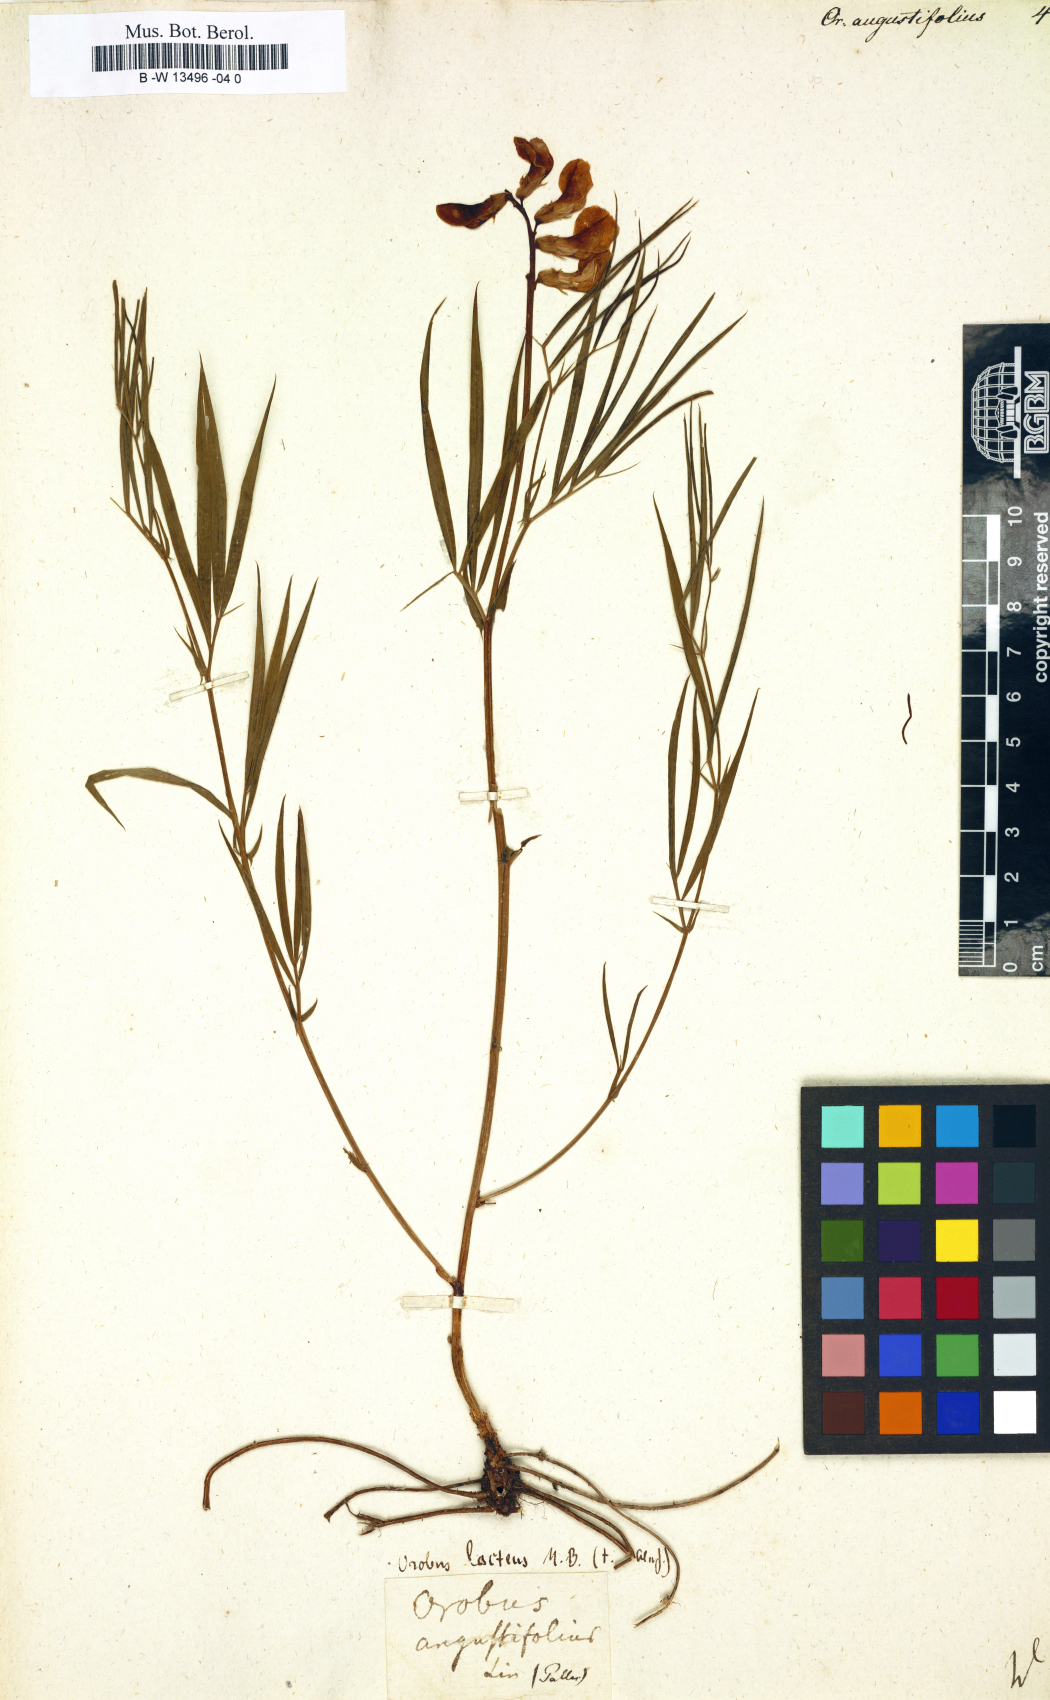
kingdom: Plantae
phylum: Tracheophyta
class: Magnoliopsida
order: Fabales
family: Fabaceae
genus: Lathyrus
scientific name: Lathyrus
